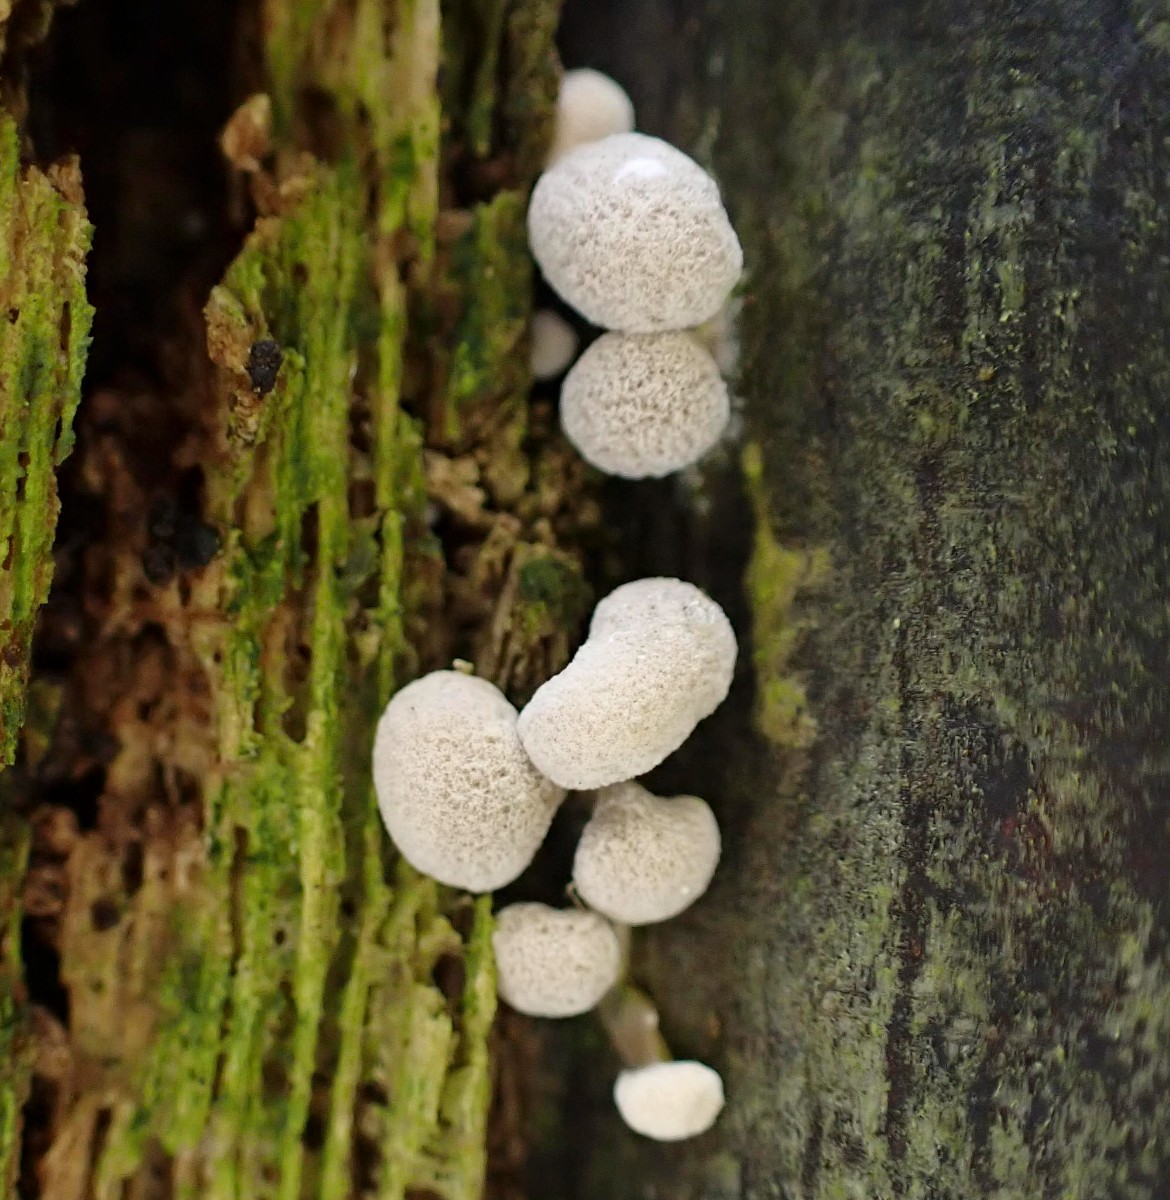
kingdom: Fungi
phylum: Basidiomycota
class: Atractiellomycetes
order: Atractiellales
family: Phleogenaceae
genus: Phleogena
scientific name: Phleogena faginea
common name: pudderkølle
